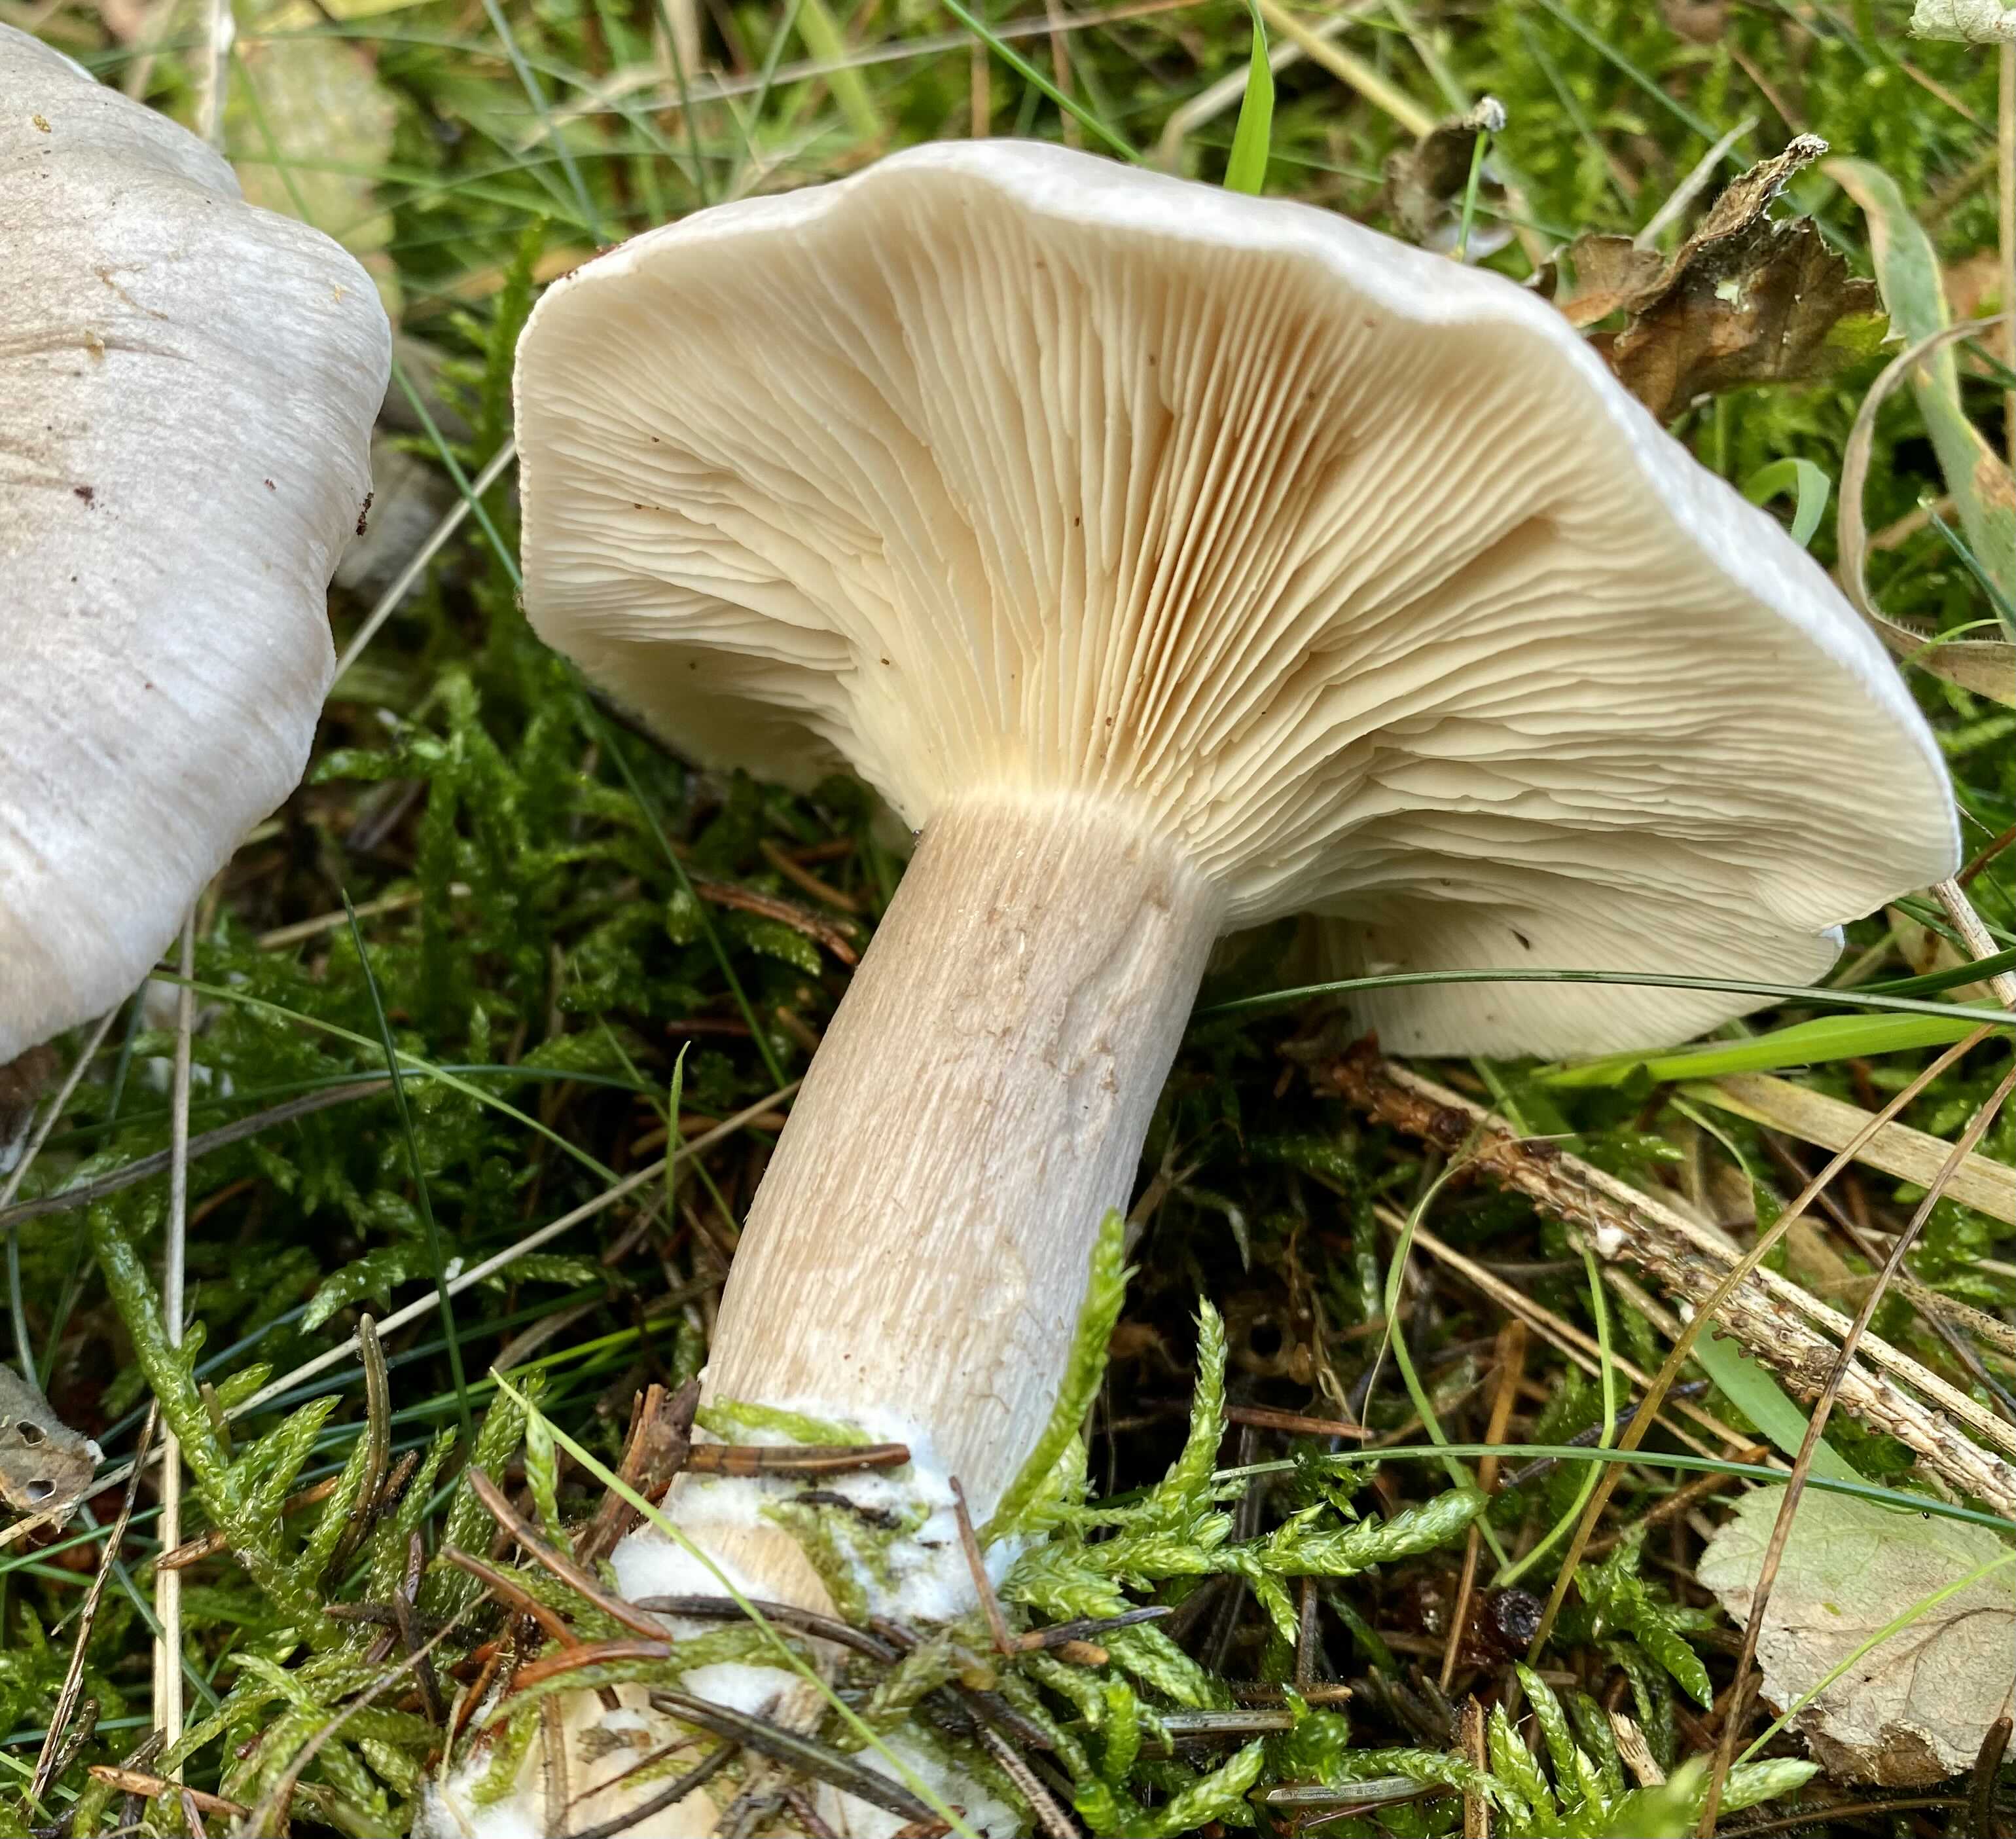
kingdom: Fungi
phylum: Basidiomycota
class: Agaricomycetes
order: Agaricales
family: Tricholomataceae
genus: Clitocybe
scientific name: Clitocybe nebularis
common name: tåge-tragthat
